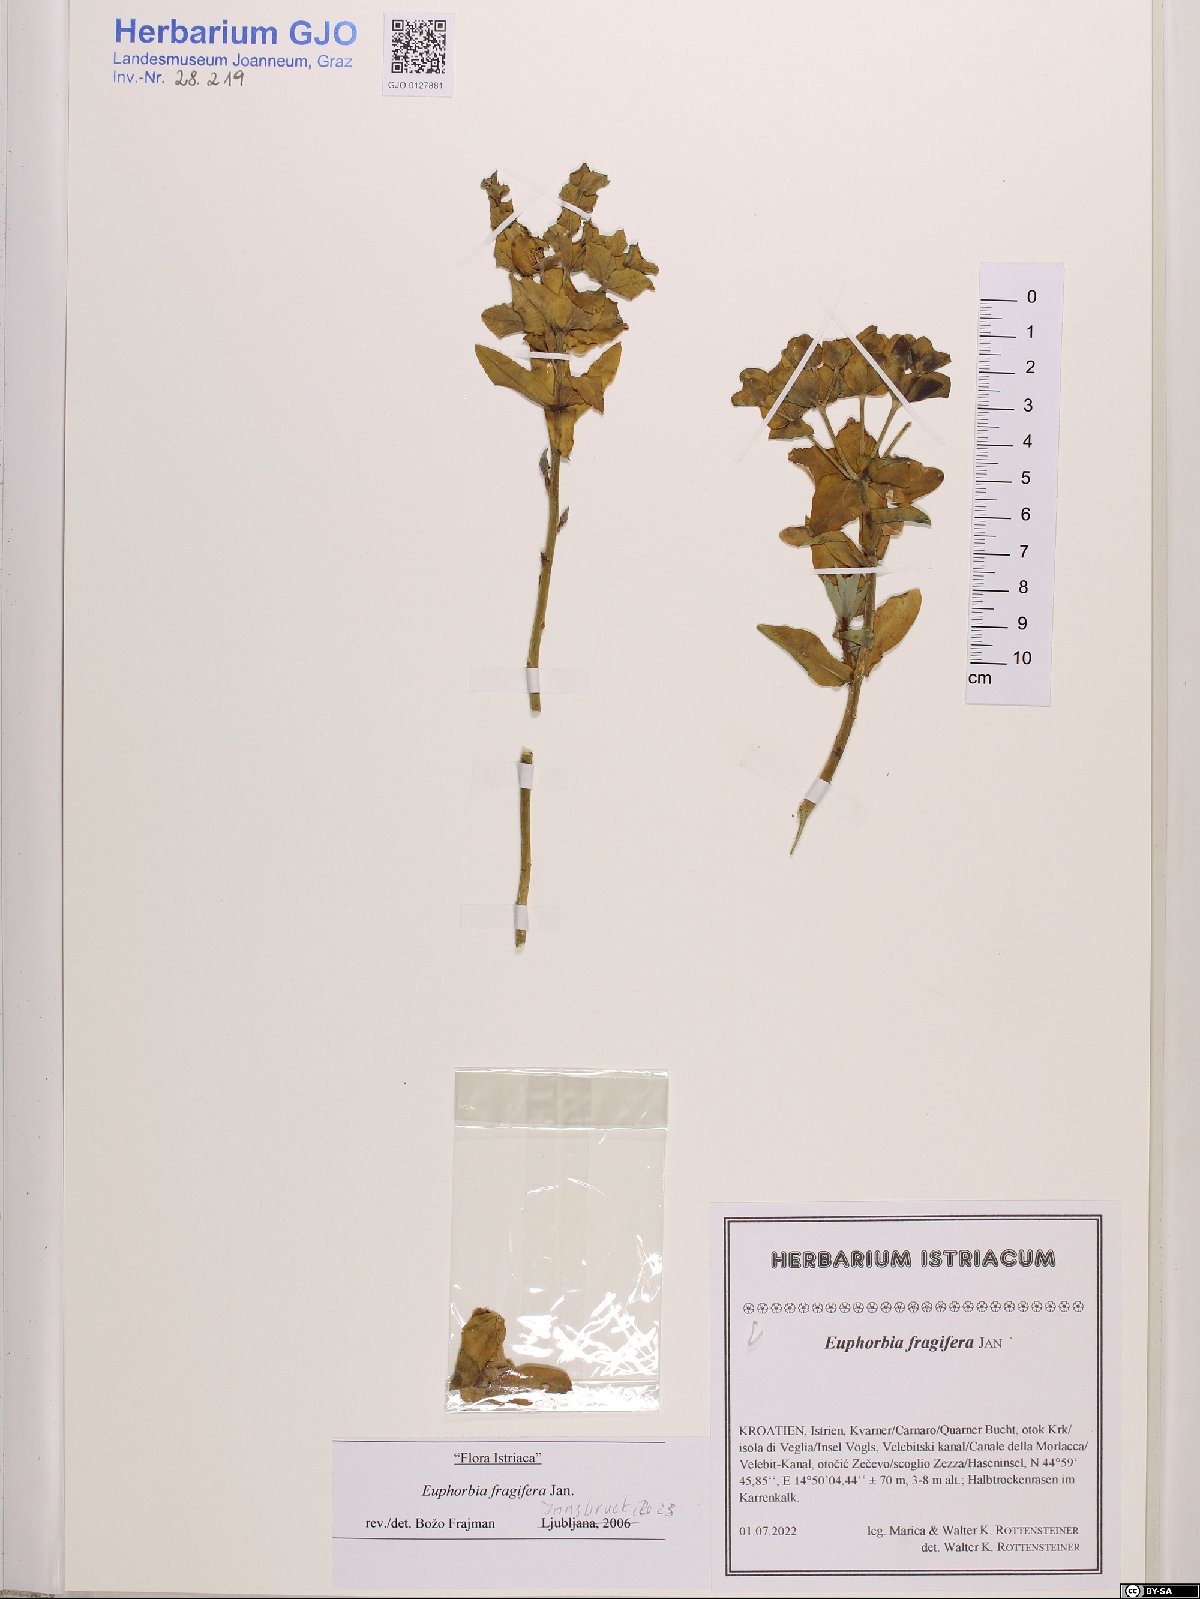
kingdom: Plantae
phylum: Tracheophyta
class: Magnoliopsida
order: Malpighiales
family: Euphorbiaceae
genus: Euphorbia
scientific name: Euphorbia fragifera
